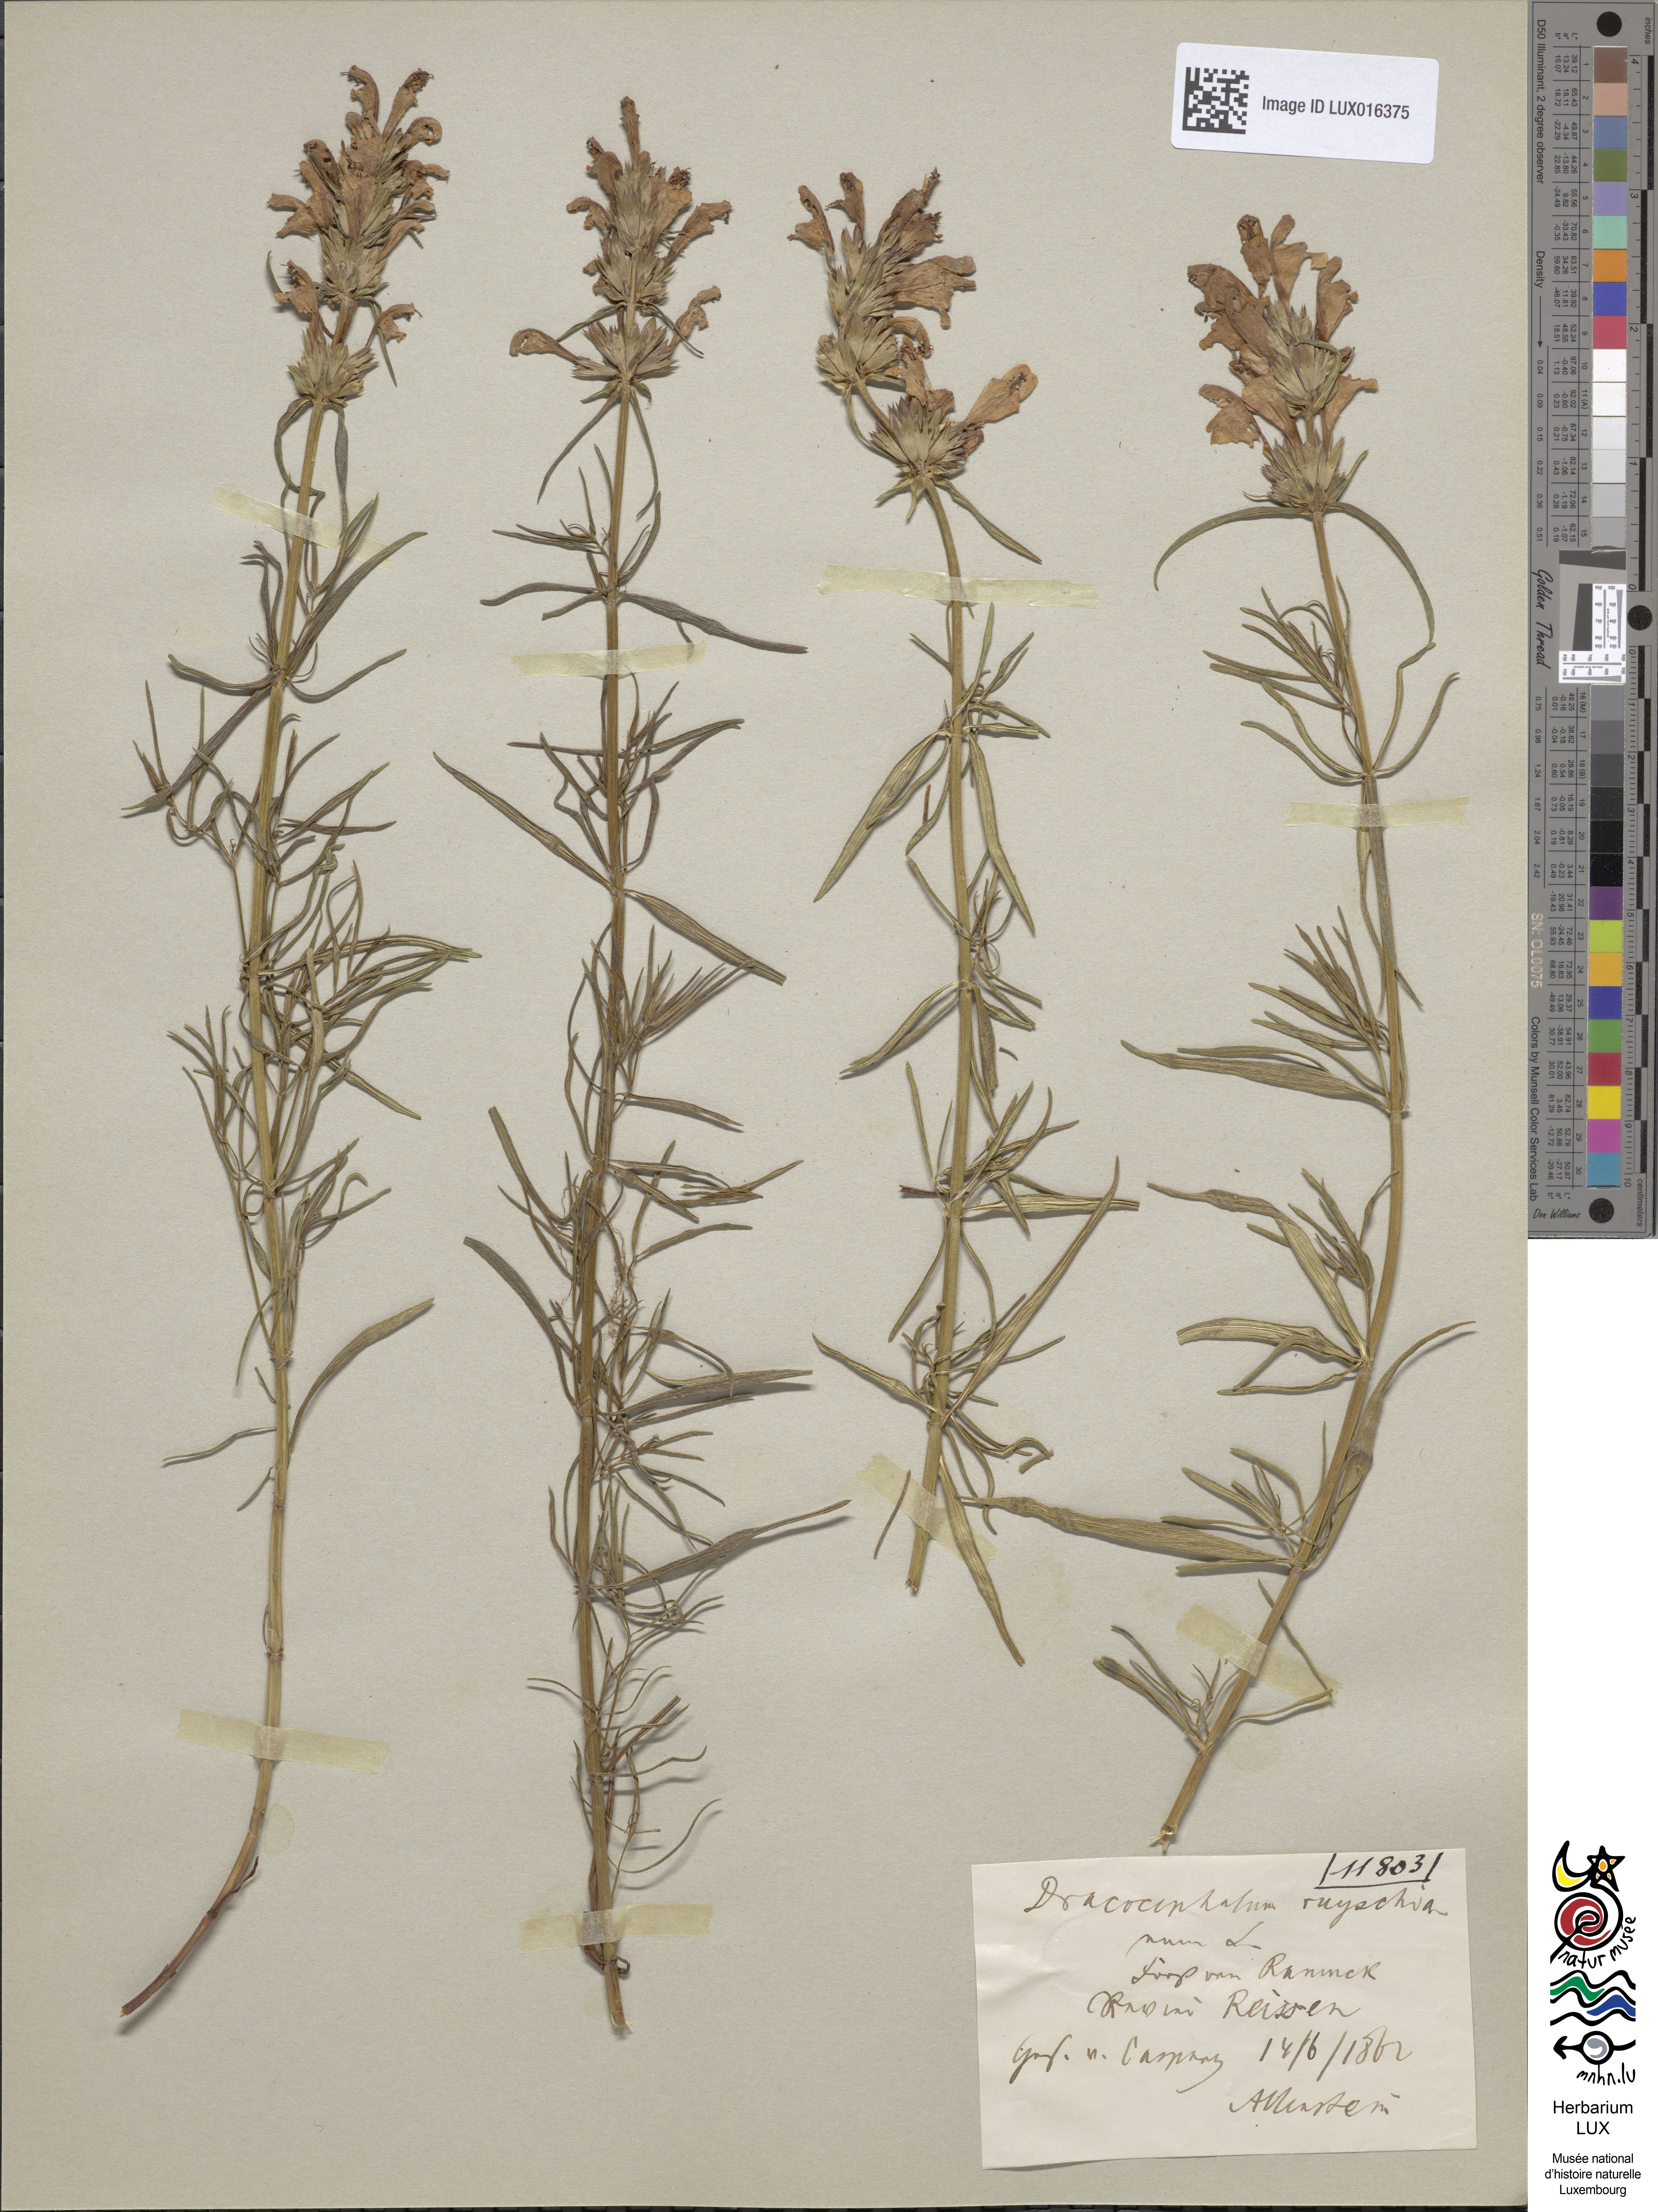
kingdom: Plantae
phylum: Tracheophyta
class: Magnoliopsida
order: Lamiales
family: Lamiaceae
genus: Dracocephalum
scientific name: Dracocephalum ruyschiana
